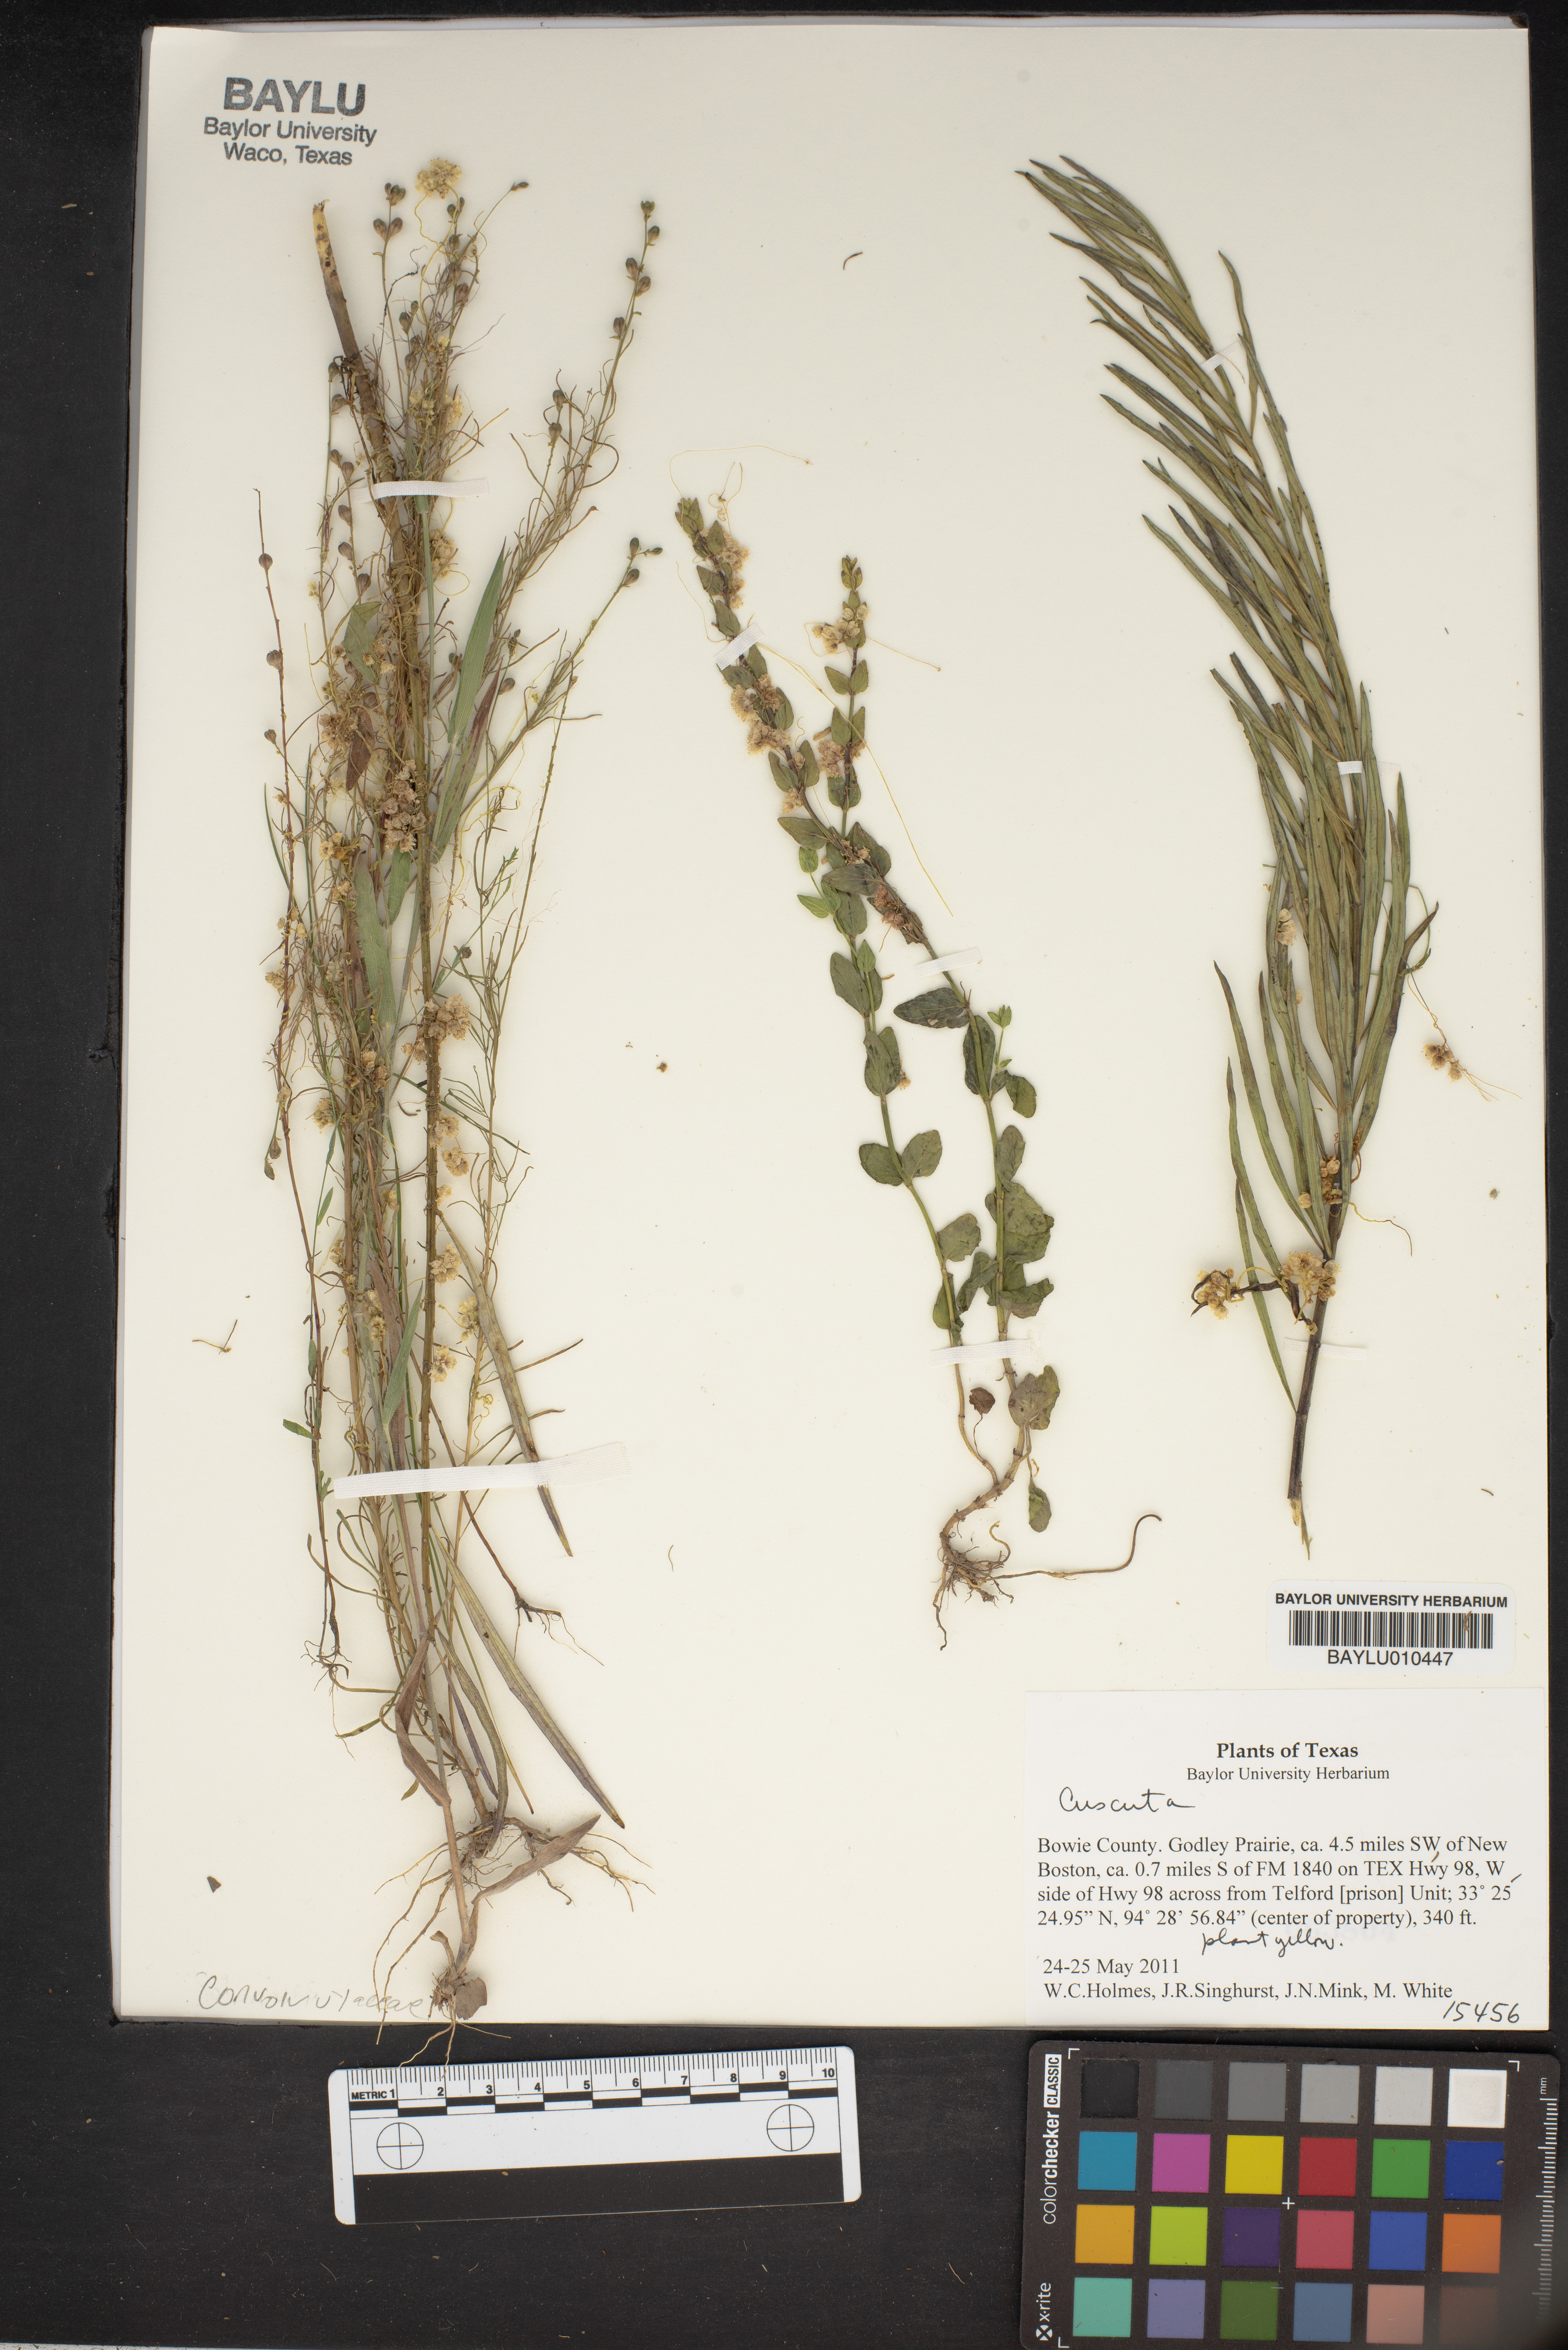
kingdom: Plantae
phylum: Tracheophyta
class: Magnoliopsida
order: Solanales
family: Convolvulaceae
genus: Cuscuta
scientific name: Cuscuta
